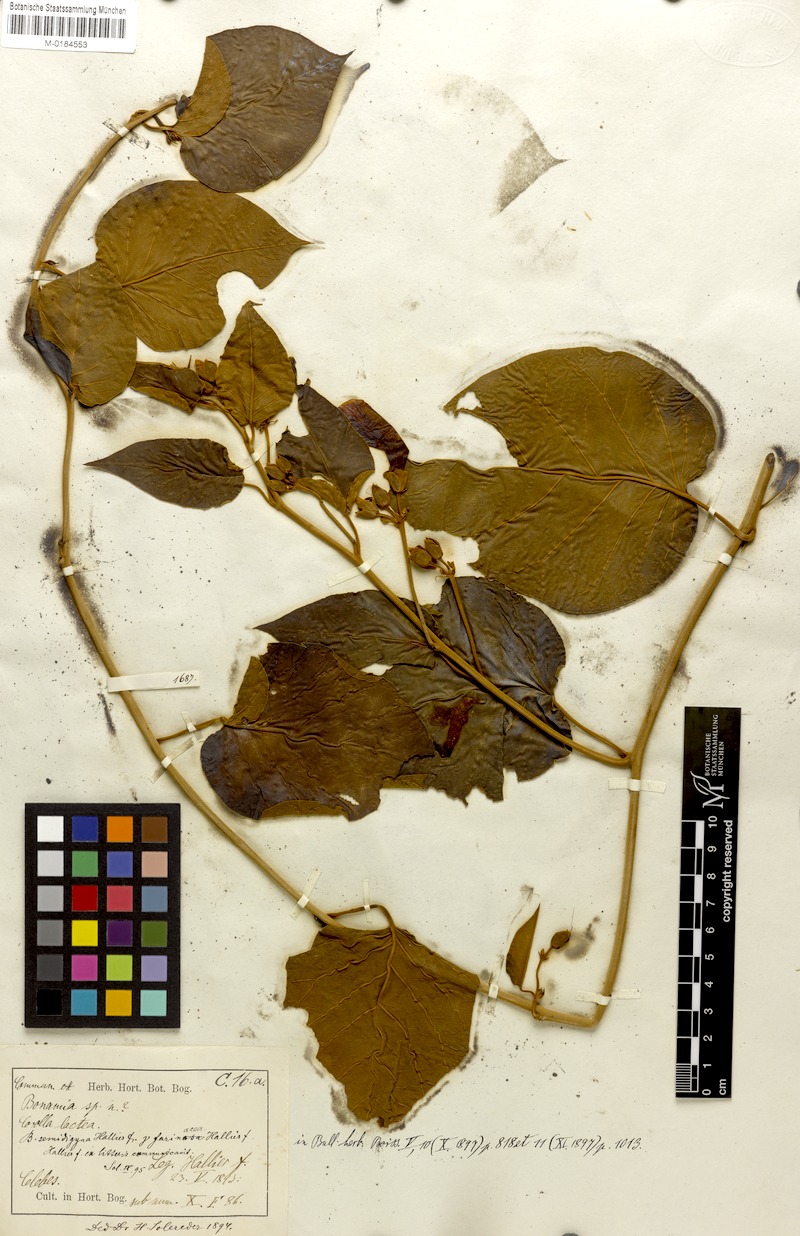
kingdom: Plantae
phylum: Tracheophyta
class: Magnoliopsida
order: Solanales
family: Convolvulaceae
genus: Bonamia
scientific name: Bonamia semidigyna
